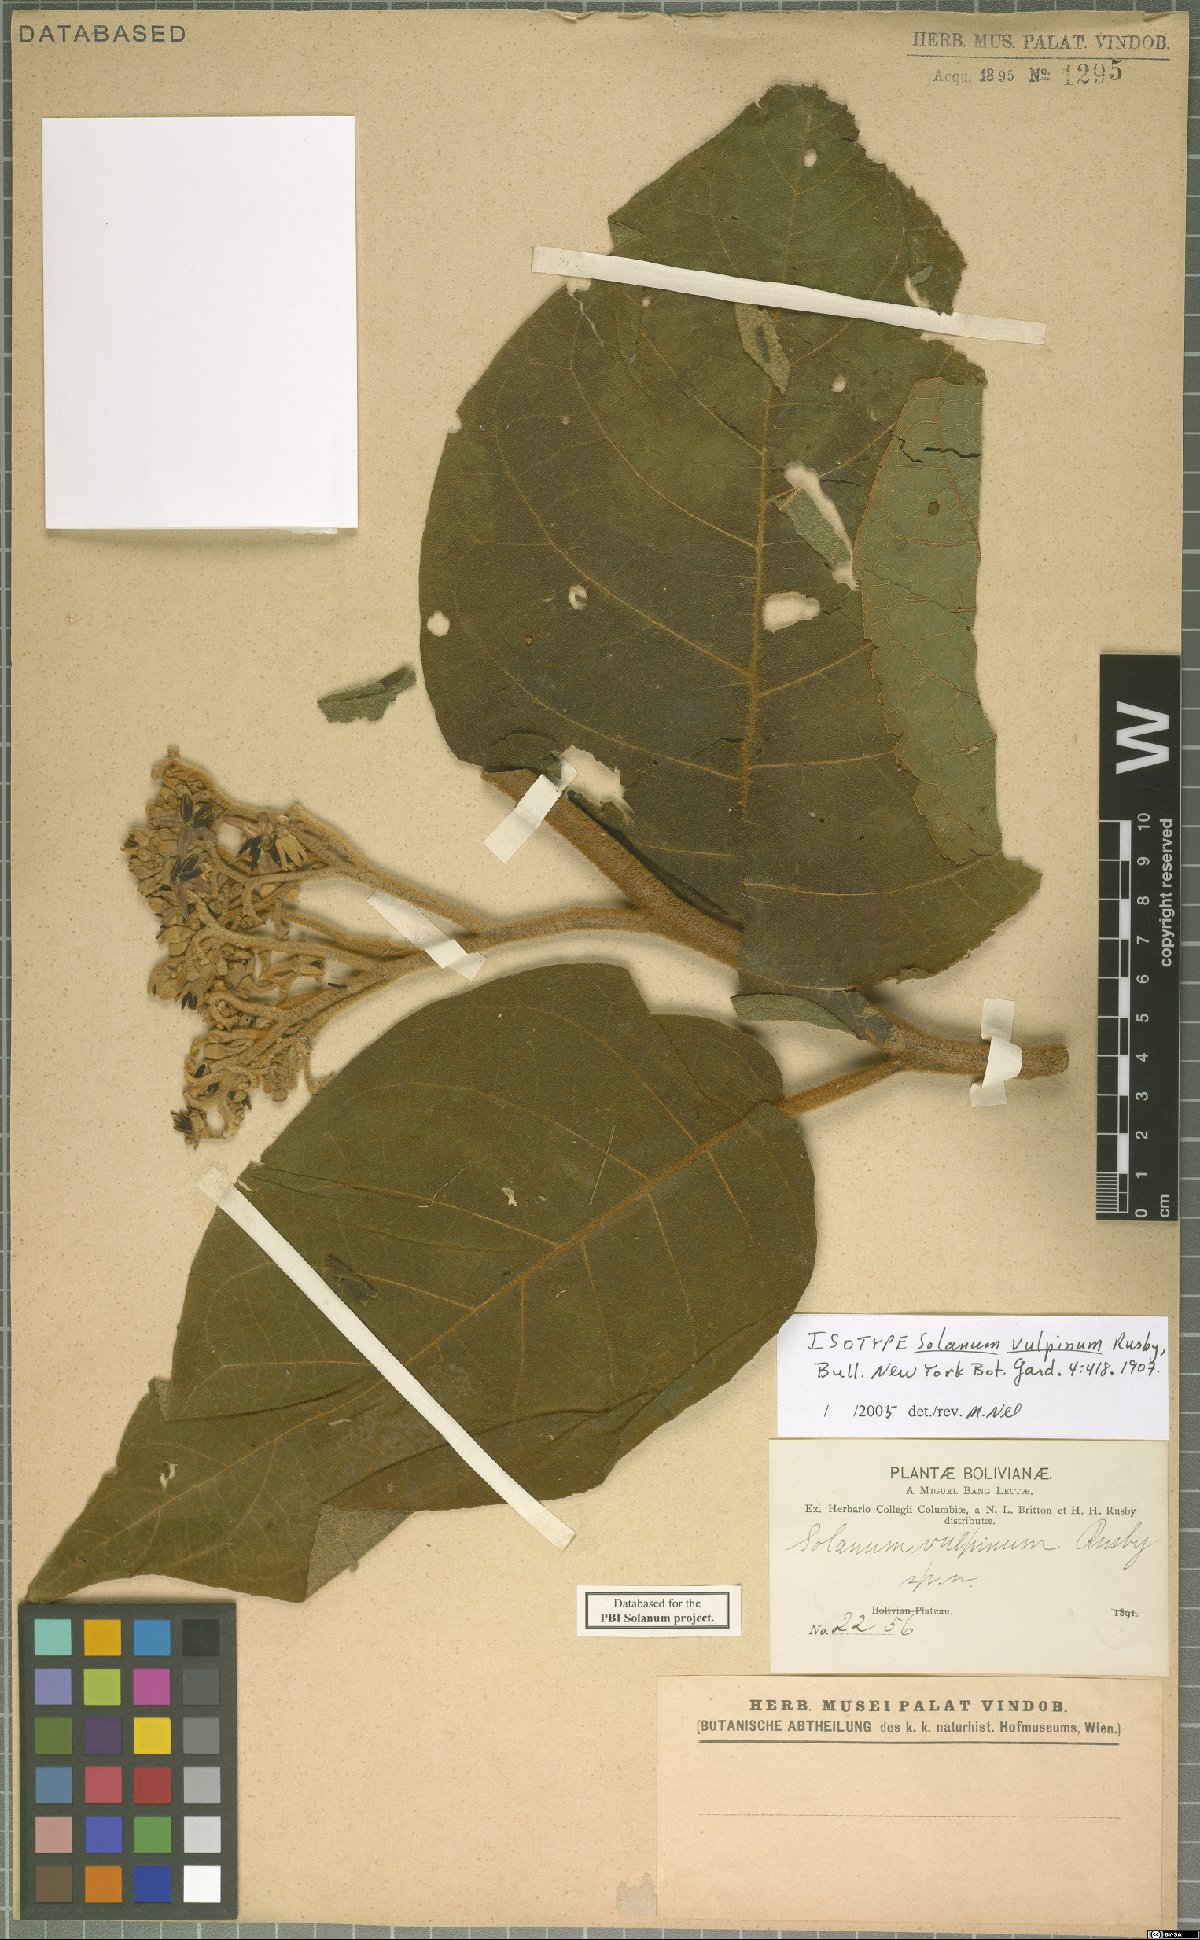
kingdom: Plantae
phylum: Tracheophyta
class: Magnoliopsida
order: Solanales
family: Solanaceae
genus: Solanum
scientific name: Solanum actaeibotrys
